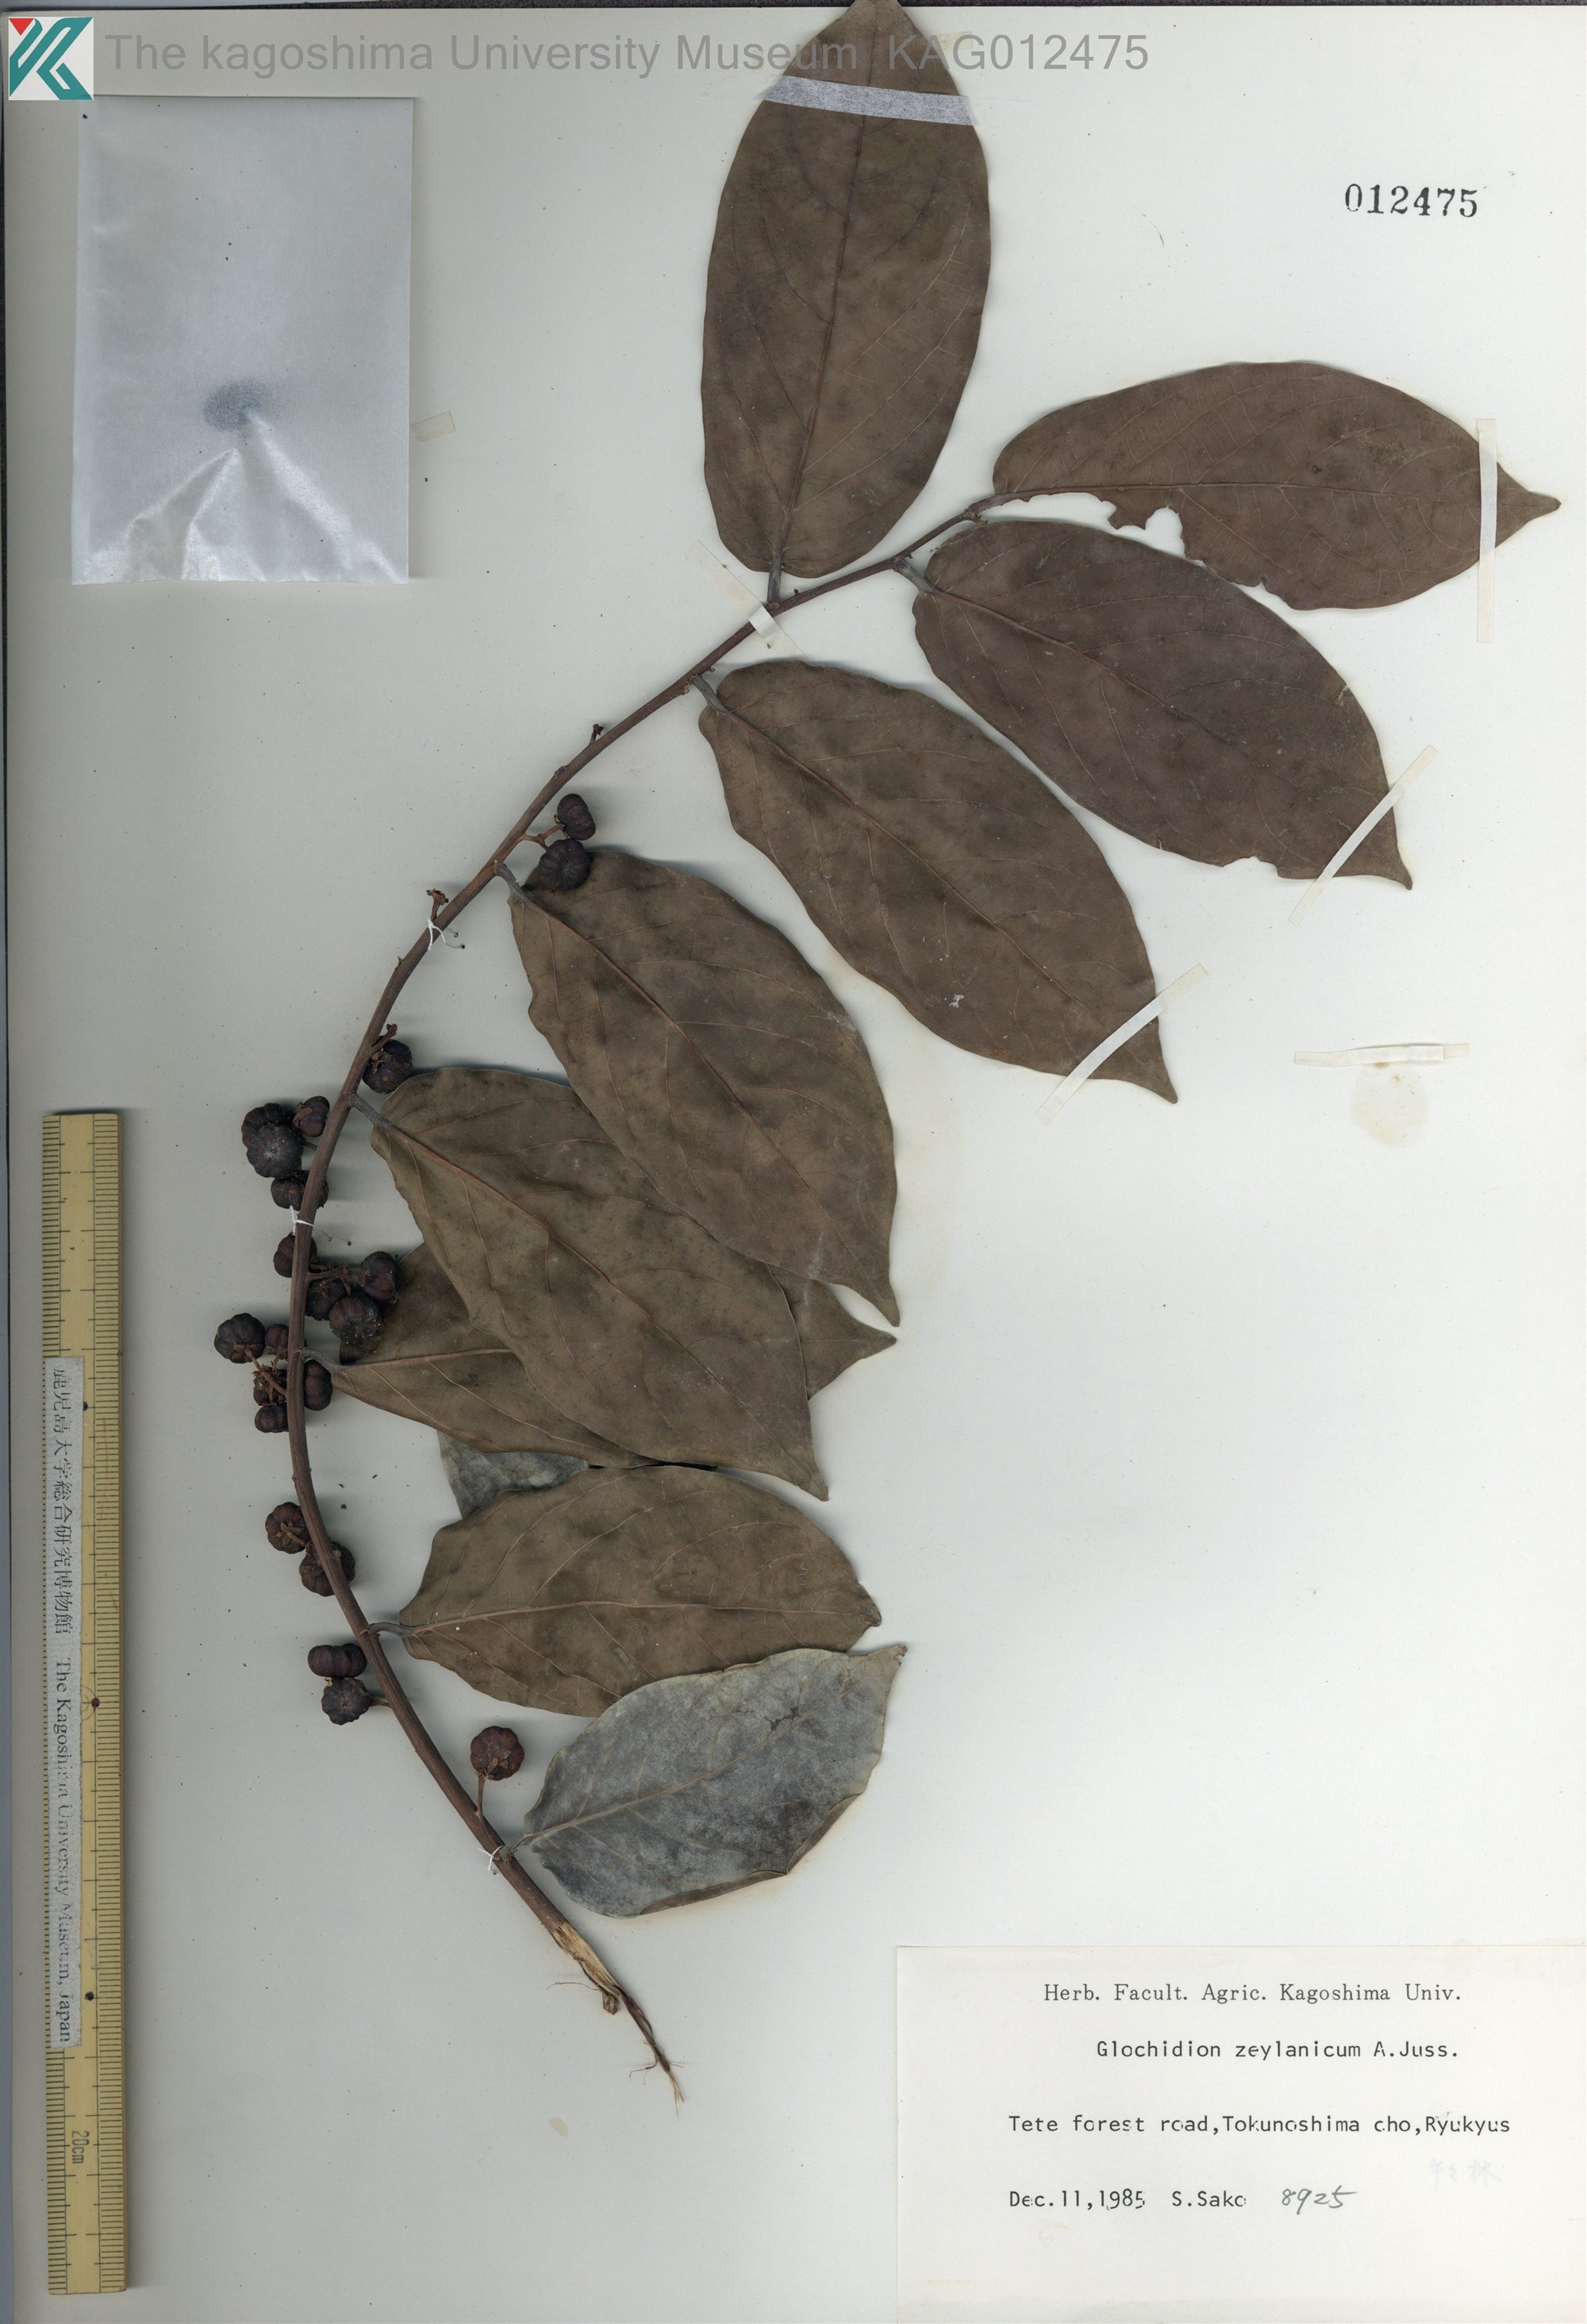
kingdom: Plantae
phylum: Tracheophyta
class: Magnoliopsida
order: Malpighiales
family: Phyllanthaceae
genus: Glochidion
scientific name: Glochidion zeylanicum
